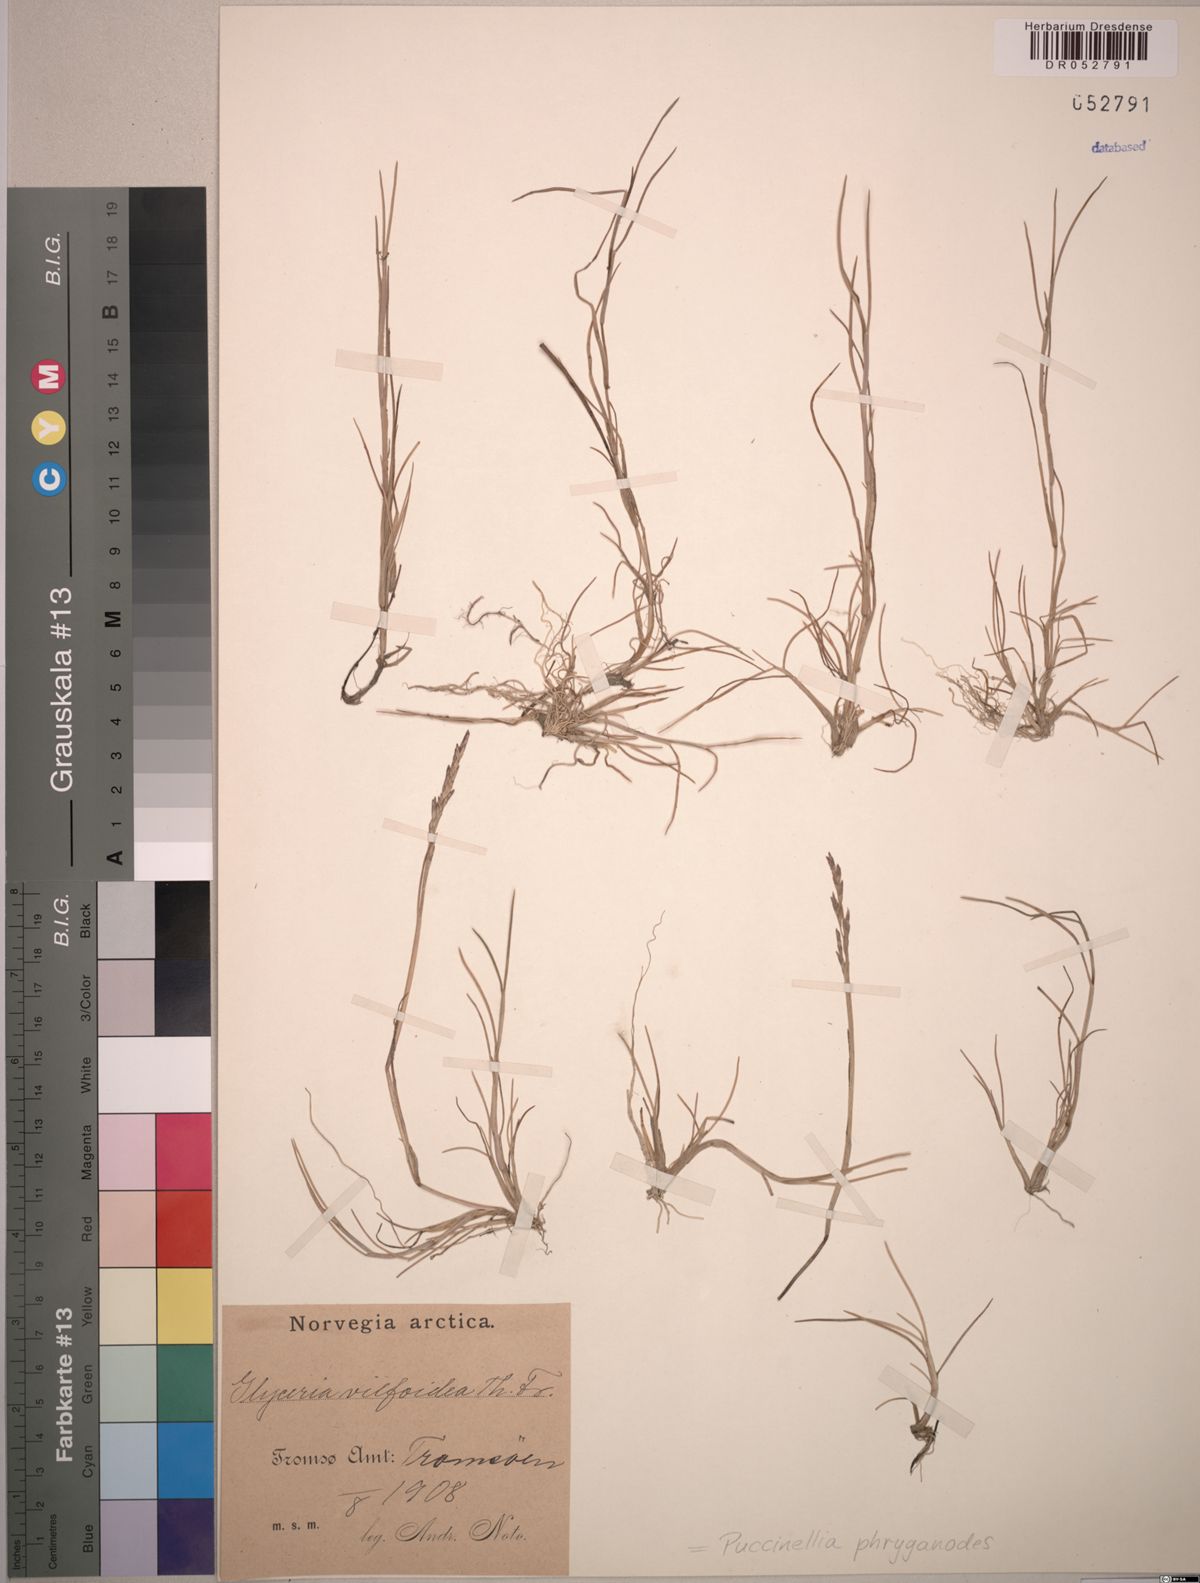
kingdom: Plantae
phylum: Tracheophyta
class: Liliopsida
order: Poales
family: Poaceae
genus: Puccinellia
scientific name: Puccinellia phryganodes
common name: Creeping alkaligrass
